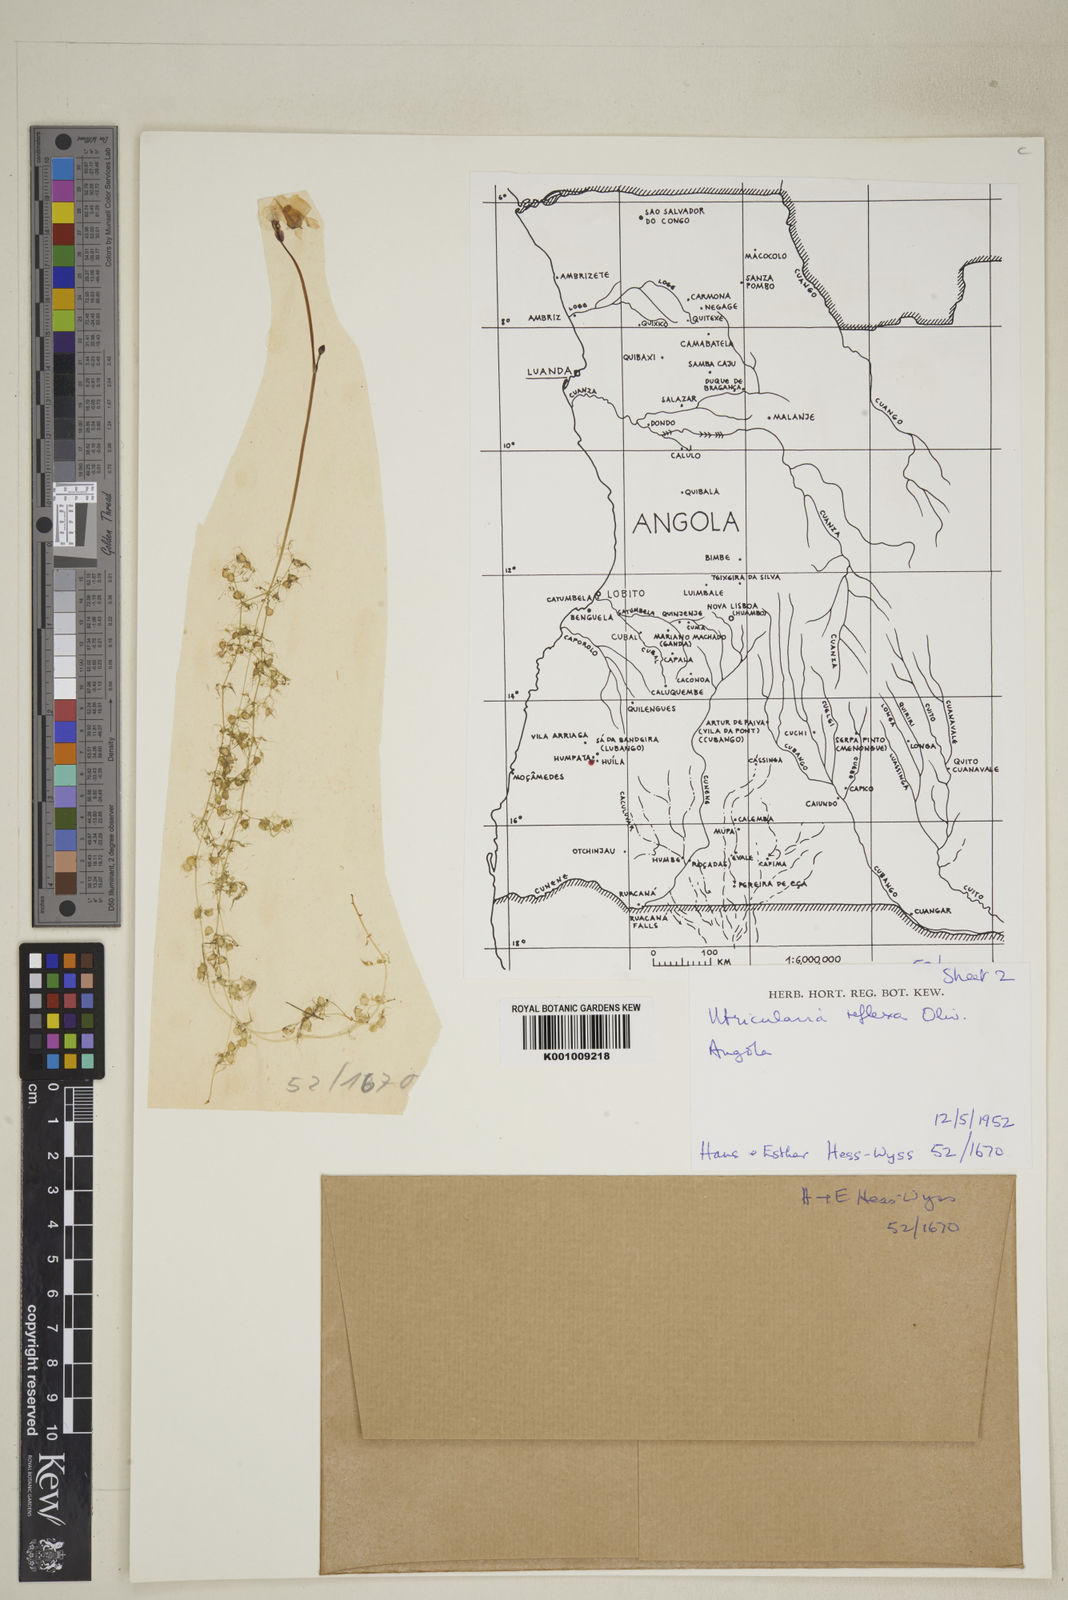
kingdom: Plantae
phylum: Tracheophyta
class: Magnoliopsida
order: Lamiales
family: Lentibulariaceae
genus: Utricularia
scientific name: Utricularia reflexa
